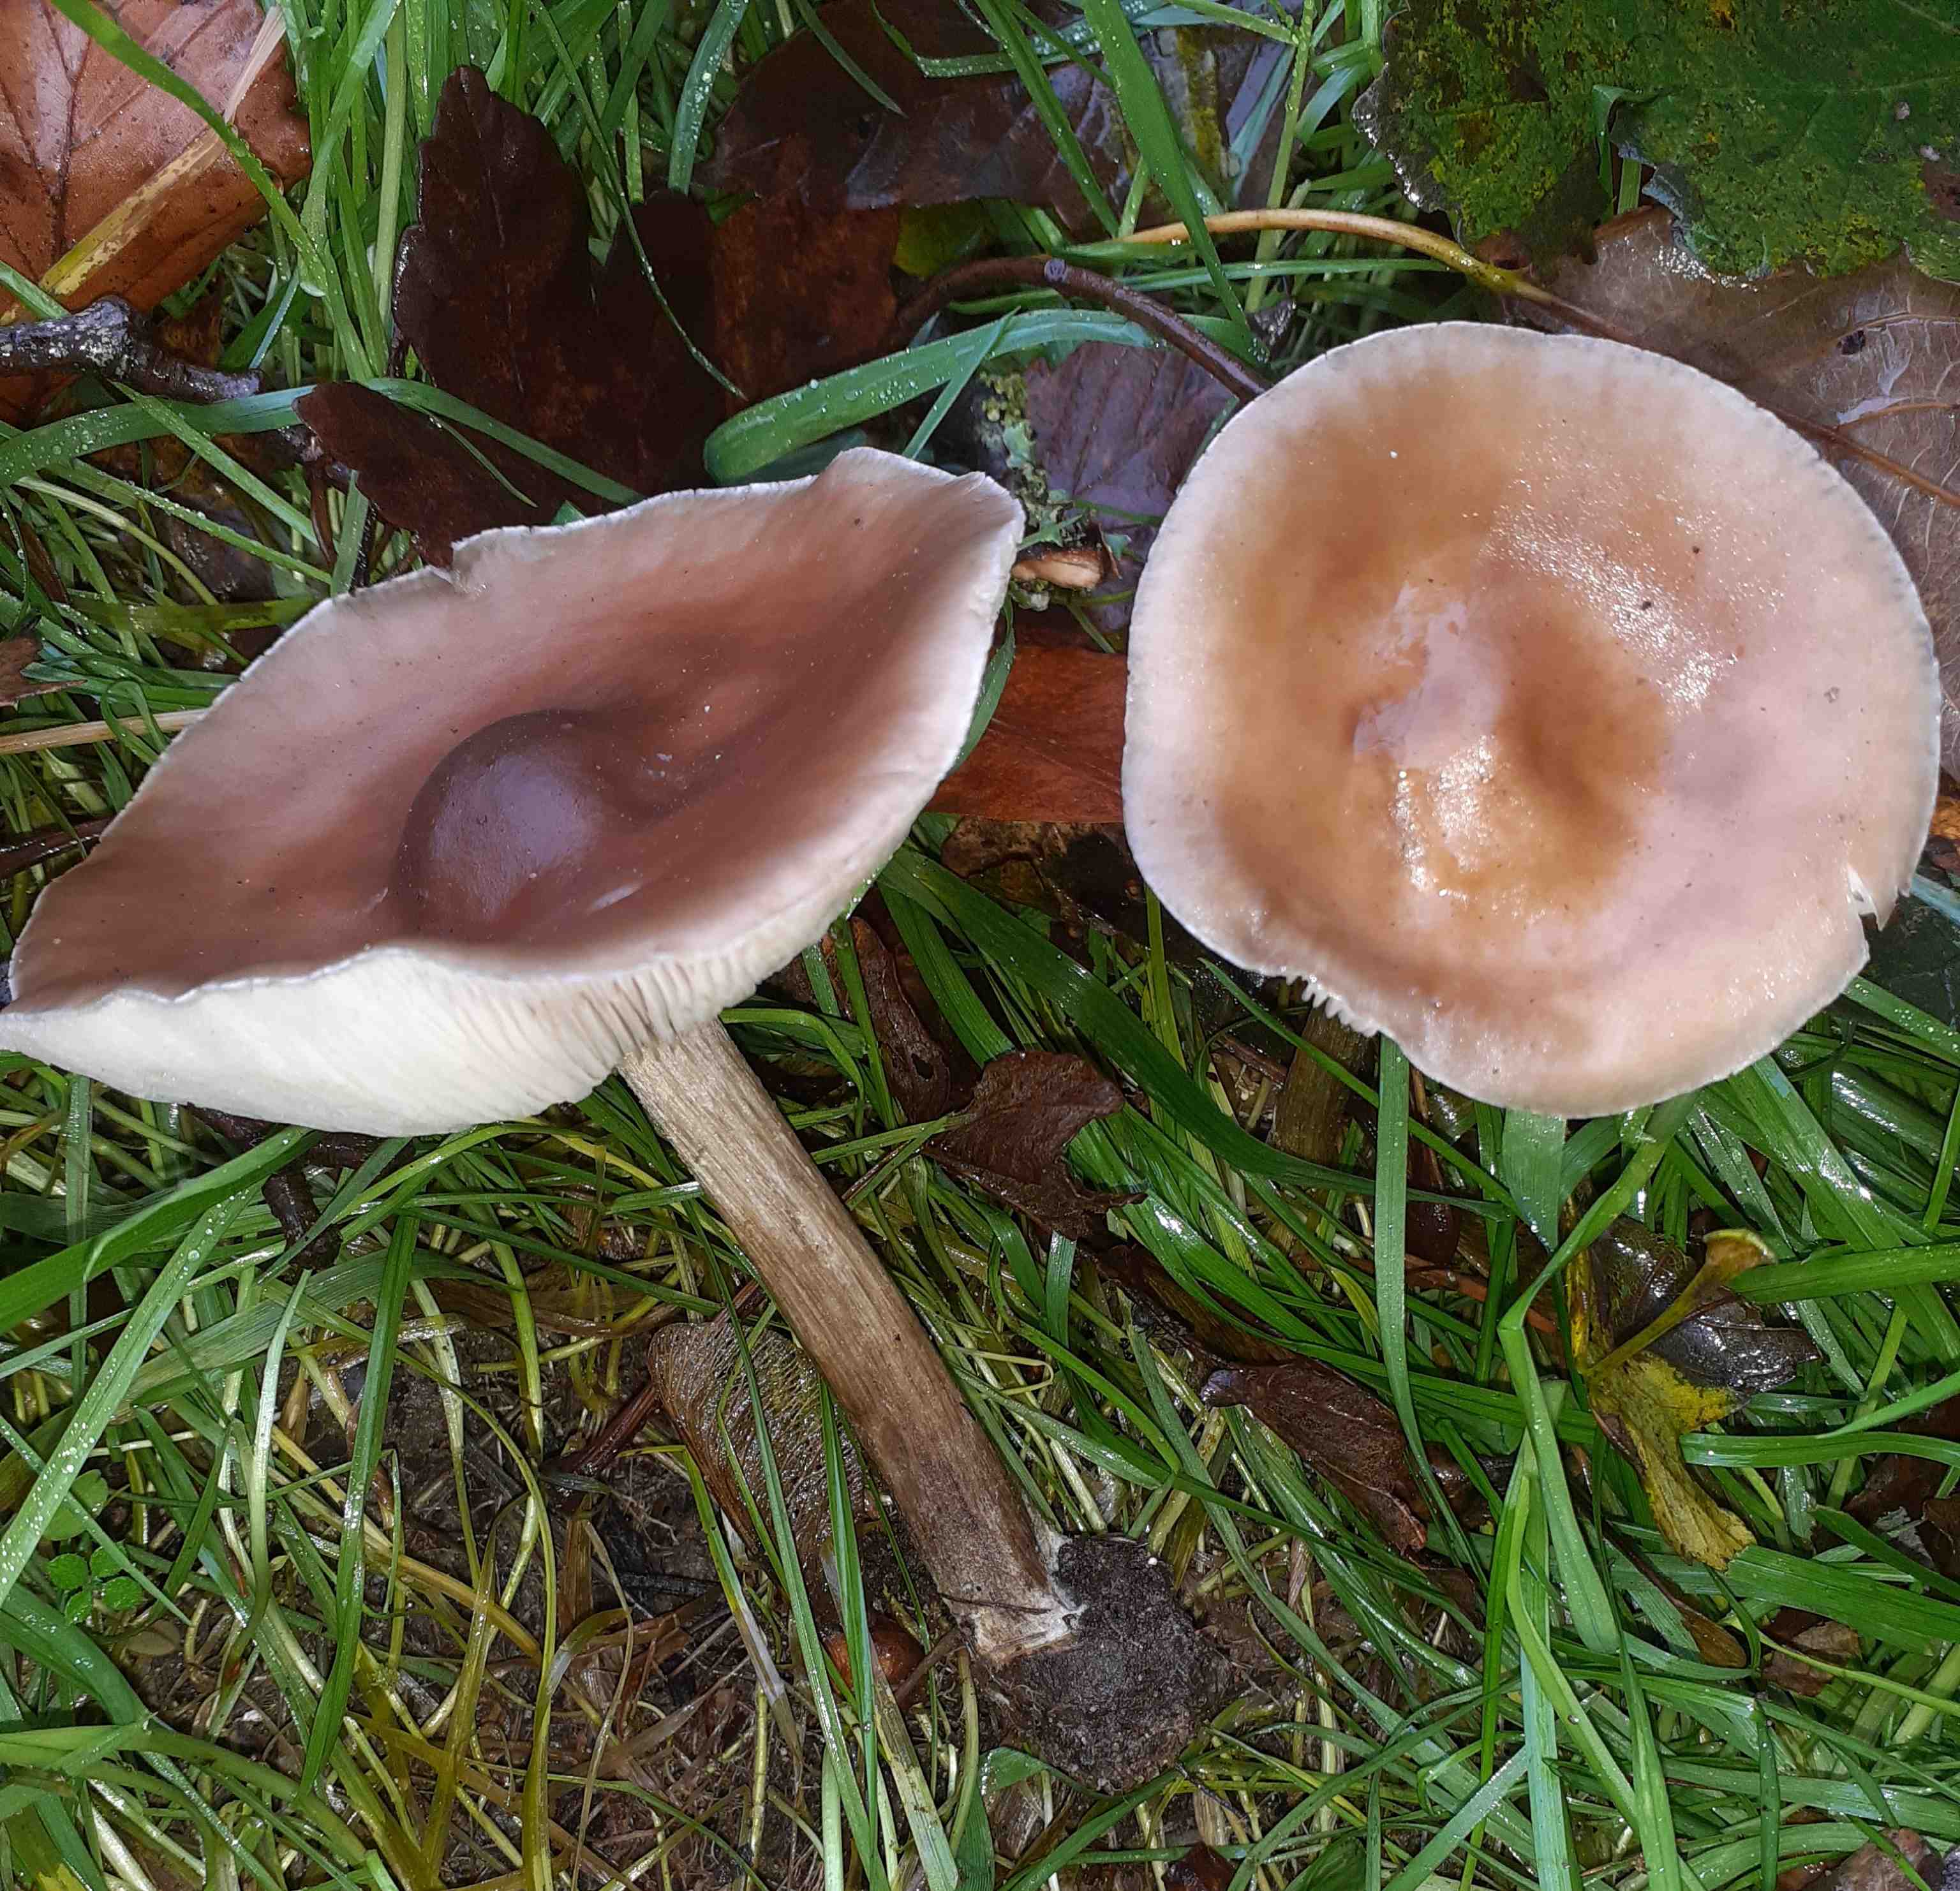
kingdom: Fungi
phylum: Basidiomycota
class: Agaricomycetes
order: Agaricales
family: Tricholomataceae
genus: Melanoleuca
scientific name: Melanoleuca
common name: munkehat
